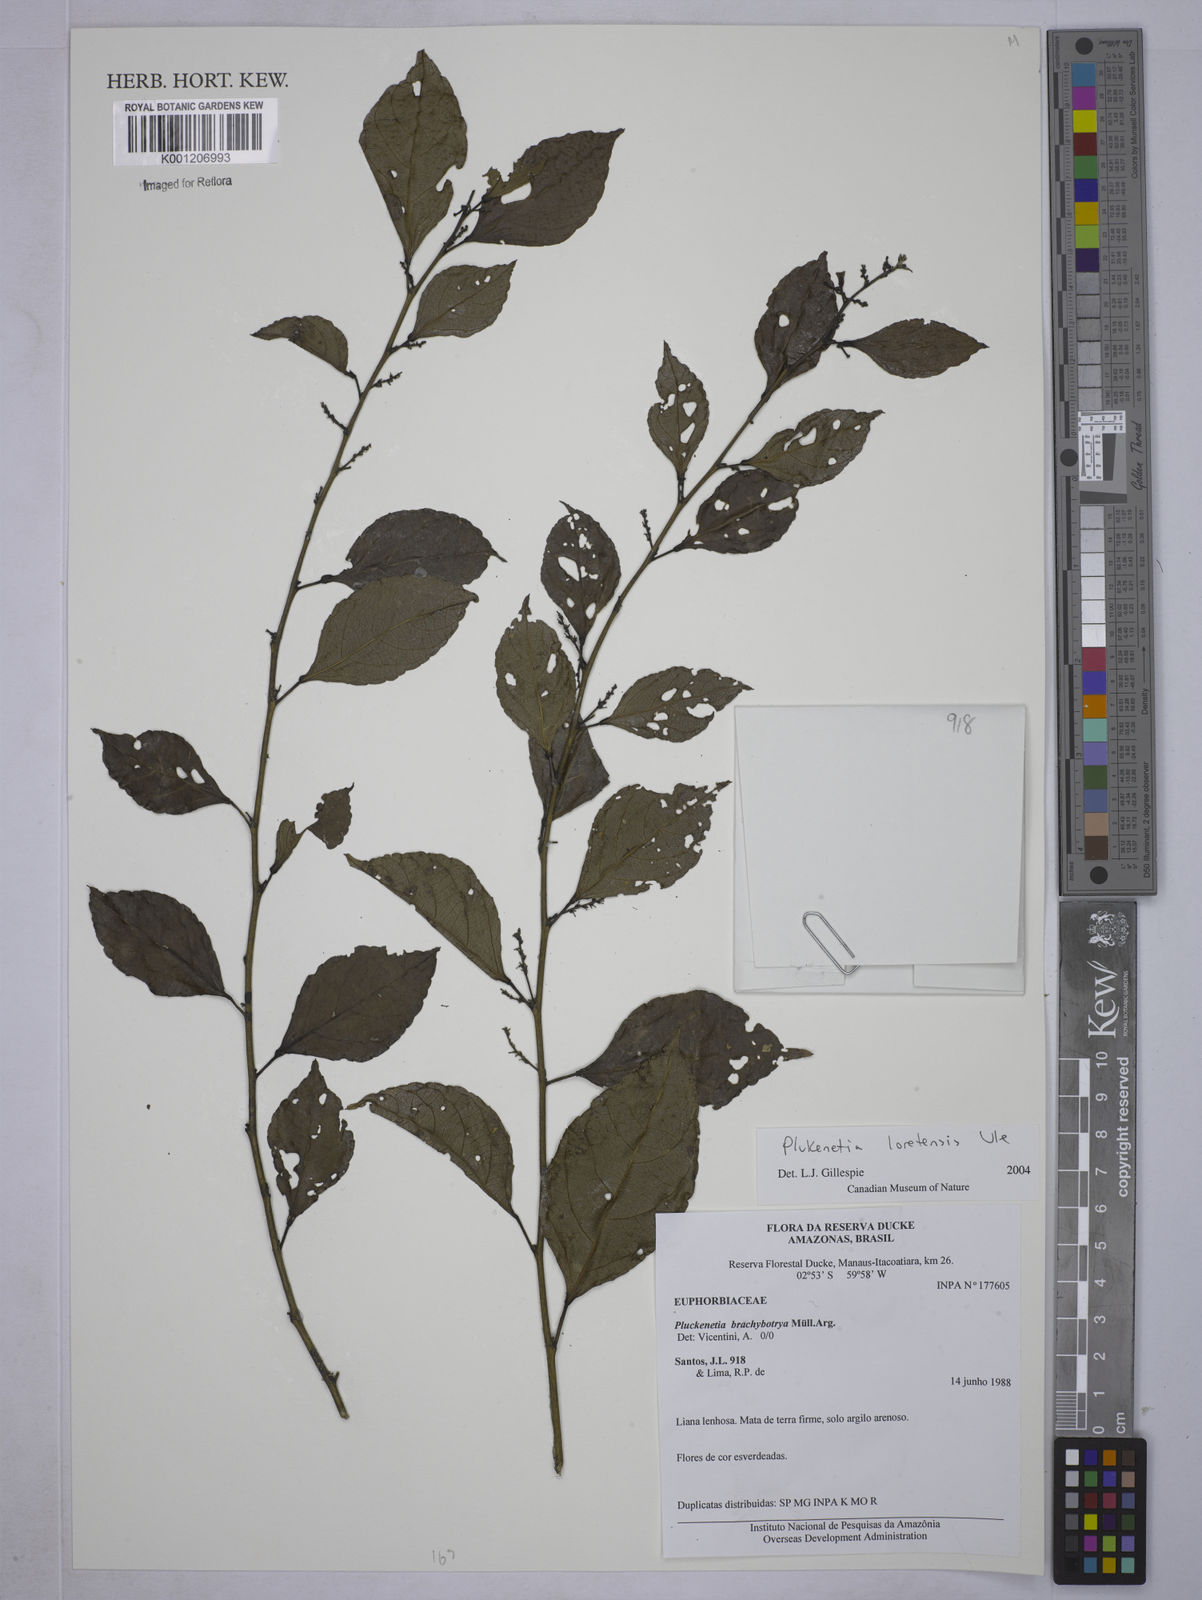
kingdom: Plantae
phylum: Tracheophyta
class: Magnoliopsida
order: Malpighiales
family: Euphorbiaceae
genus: Plukenetia
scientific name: Plukenetia loretensis
